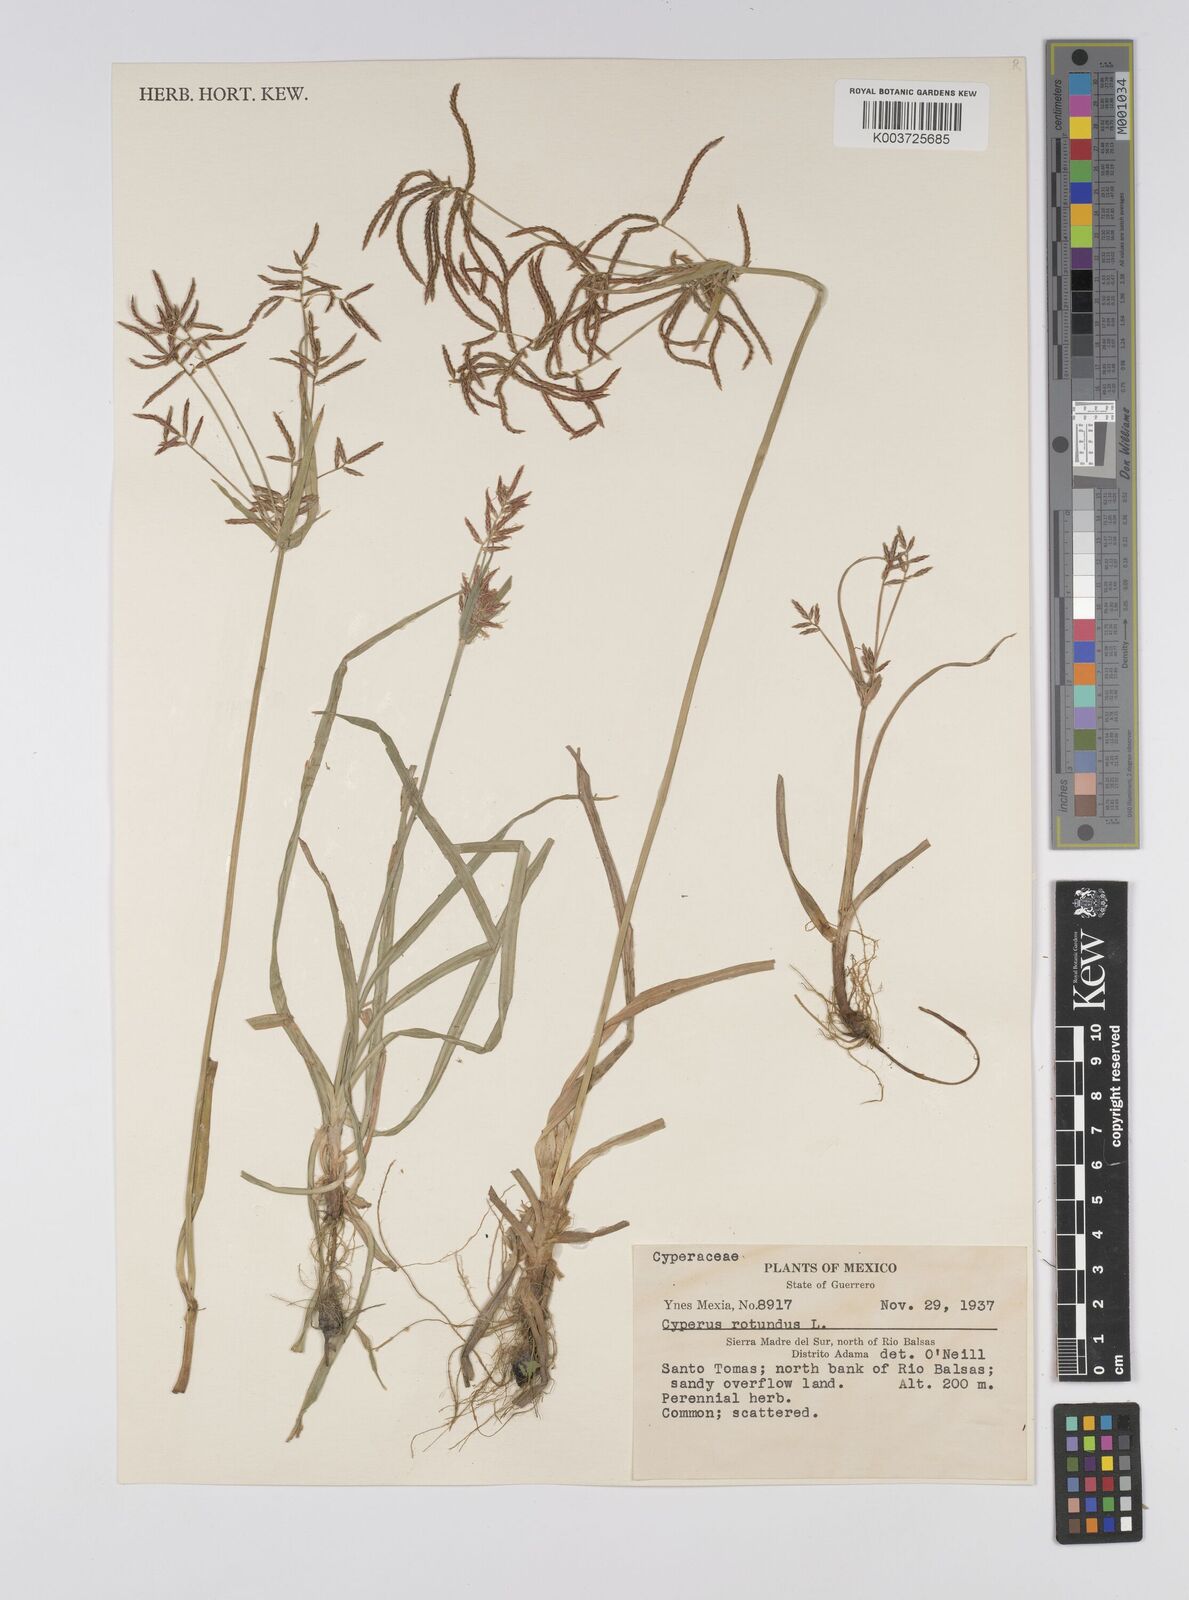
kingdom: Plantae
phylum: Tracheophyta
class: Liliopsida
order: Poales
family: Cyperaceae
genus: Cyperus
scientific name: Cyperus rotundus
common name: Nutgrass
